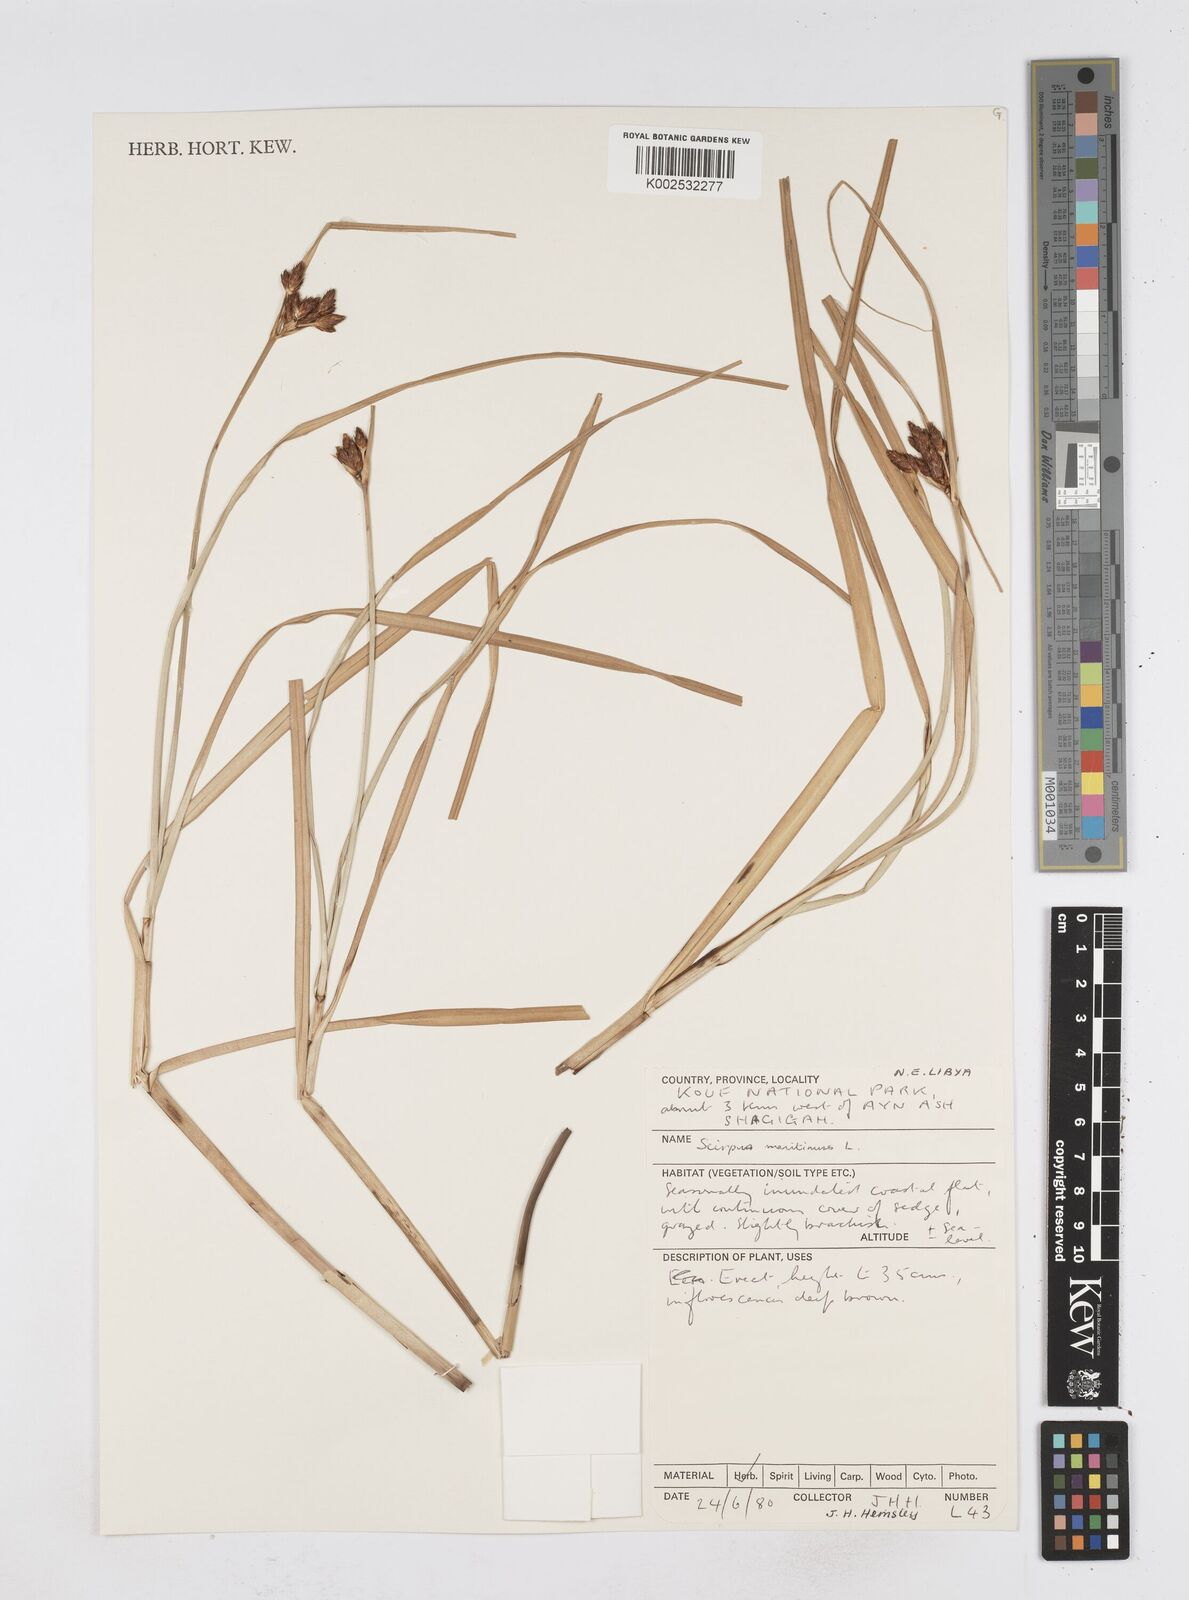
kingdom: Plantae
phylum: Tracheophyta
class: Liliopsida
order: Poales
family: Cyperaceae
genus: Bolboschoenus
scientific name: Bolboschoenus maritimus
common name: Sea club-rush
